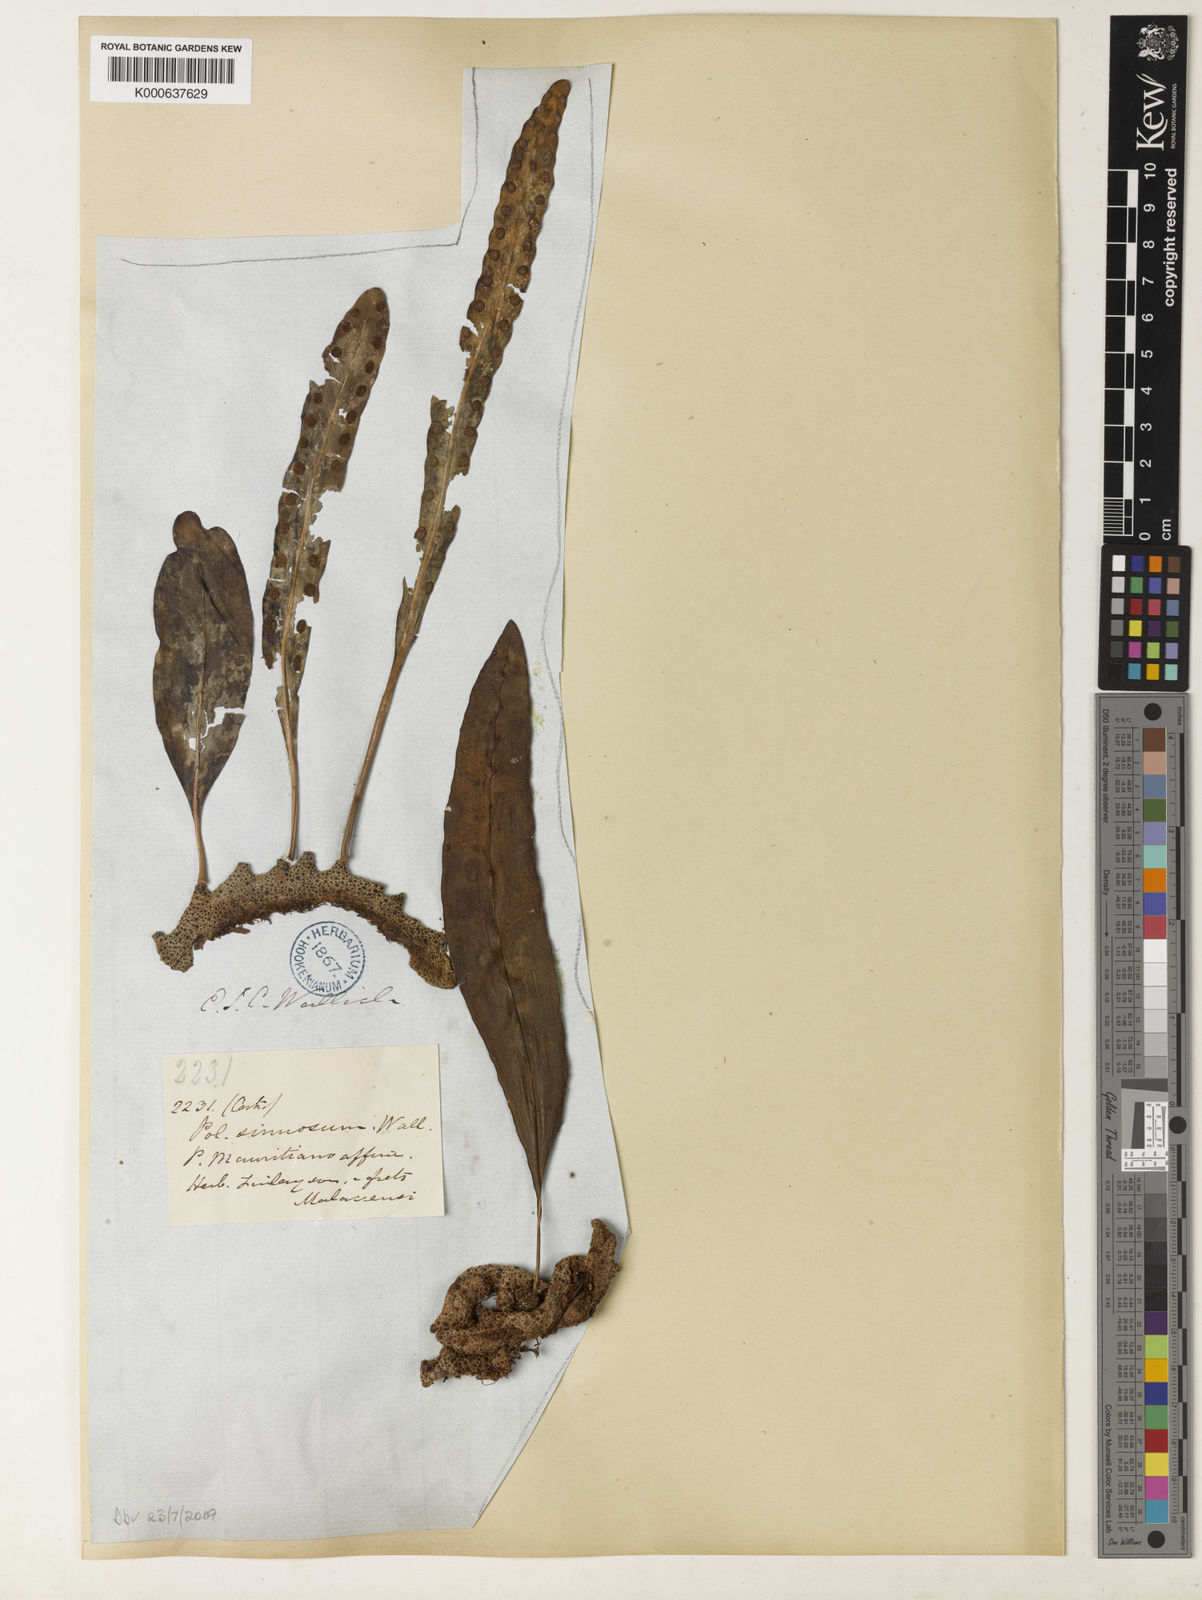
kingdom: Plantae
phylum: Tracheophyta
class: Polypodiopsida
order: Polypodiales
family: Polypodiaceae
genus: Lecanopteris
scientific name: Lecanopteris sinuosa
